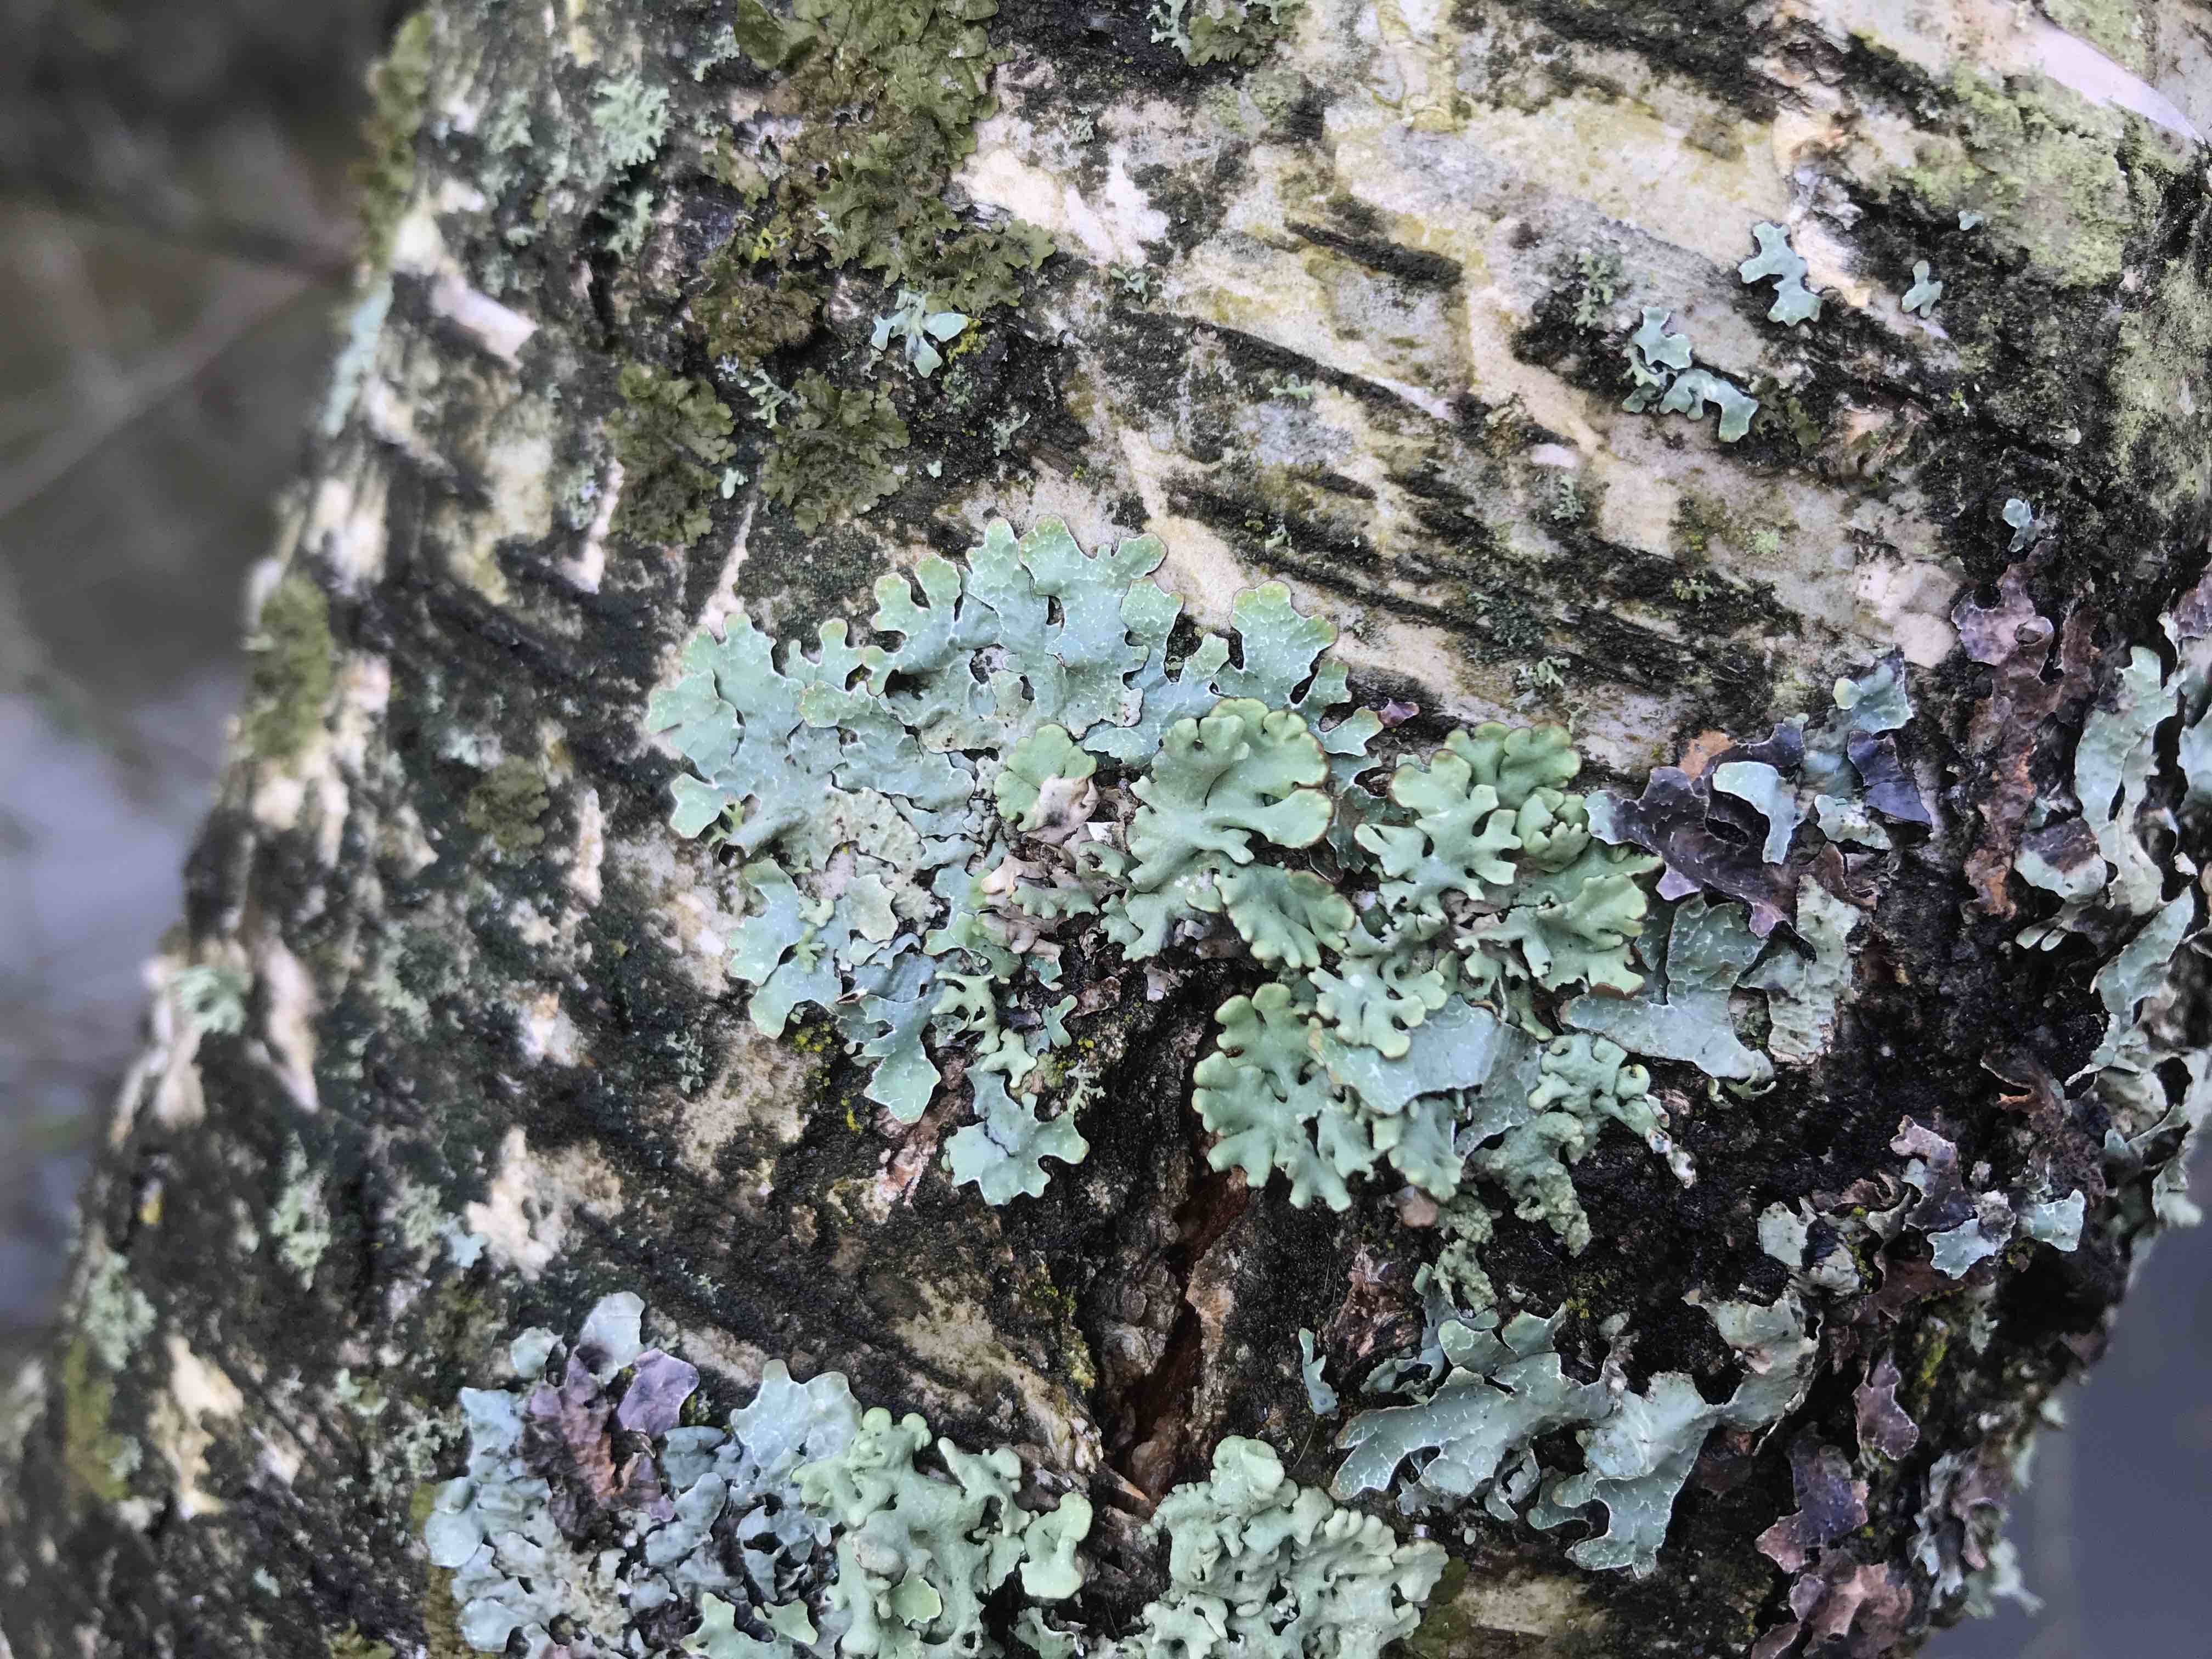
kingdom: Fungi
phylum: Ascomycota
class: Lecanoromycetes
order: Lecanorales
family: Parmeliaceae
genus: Hypogymnia
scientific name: Hypogymnia physodes
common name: almindelig kvistlav
